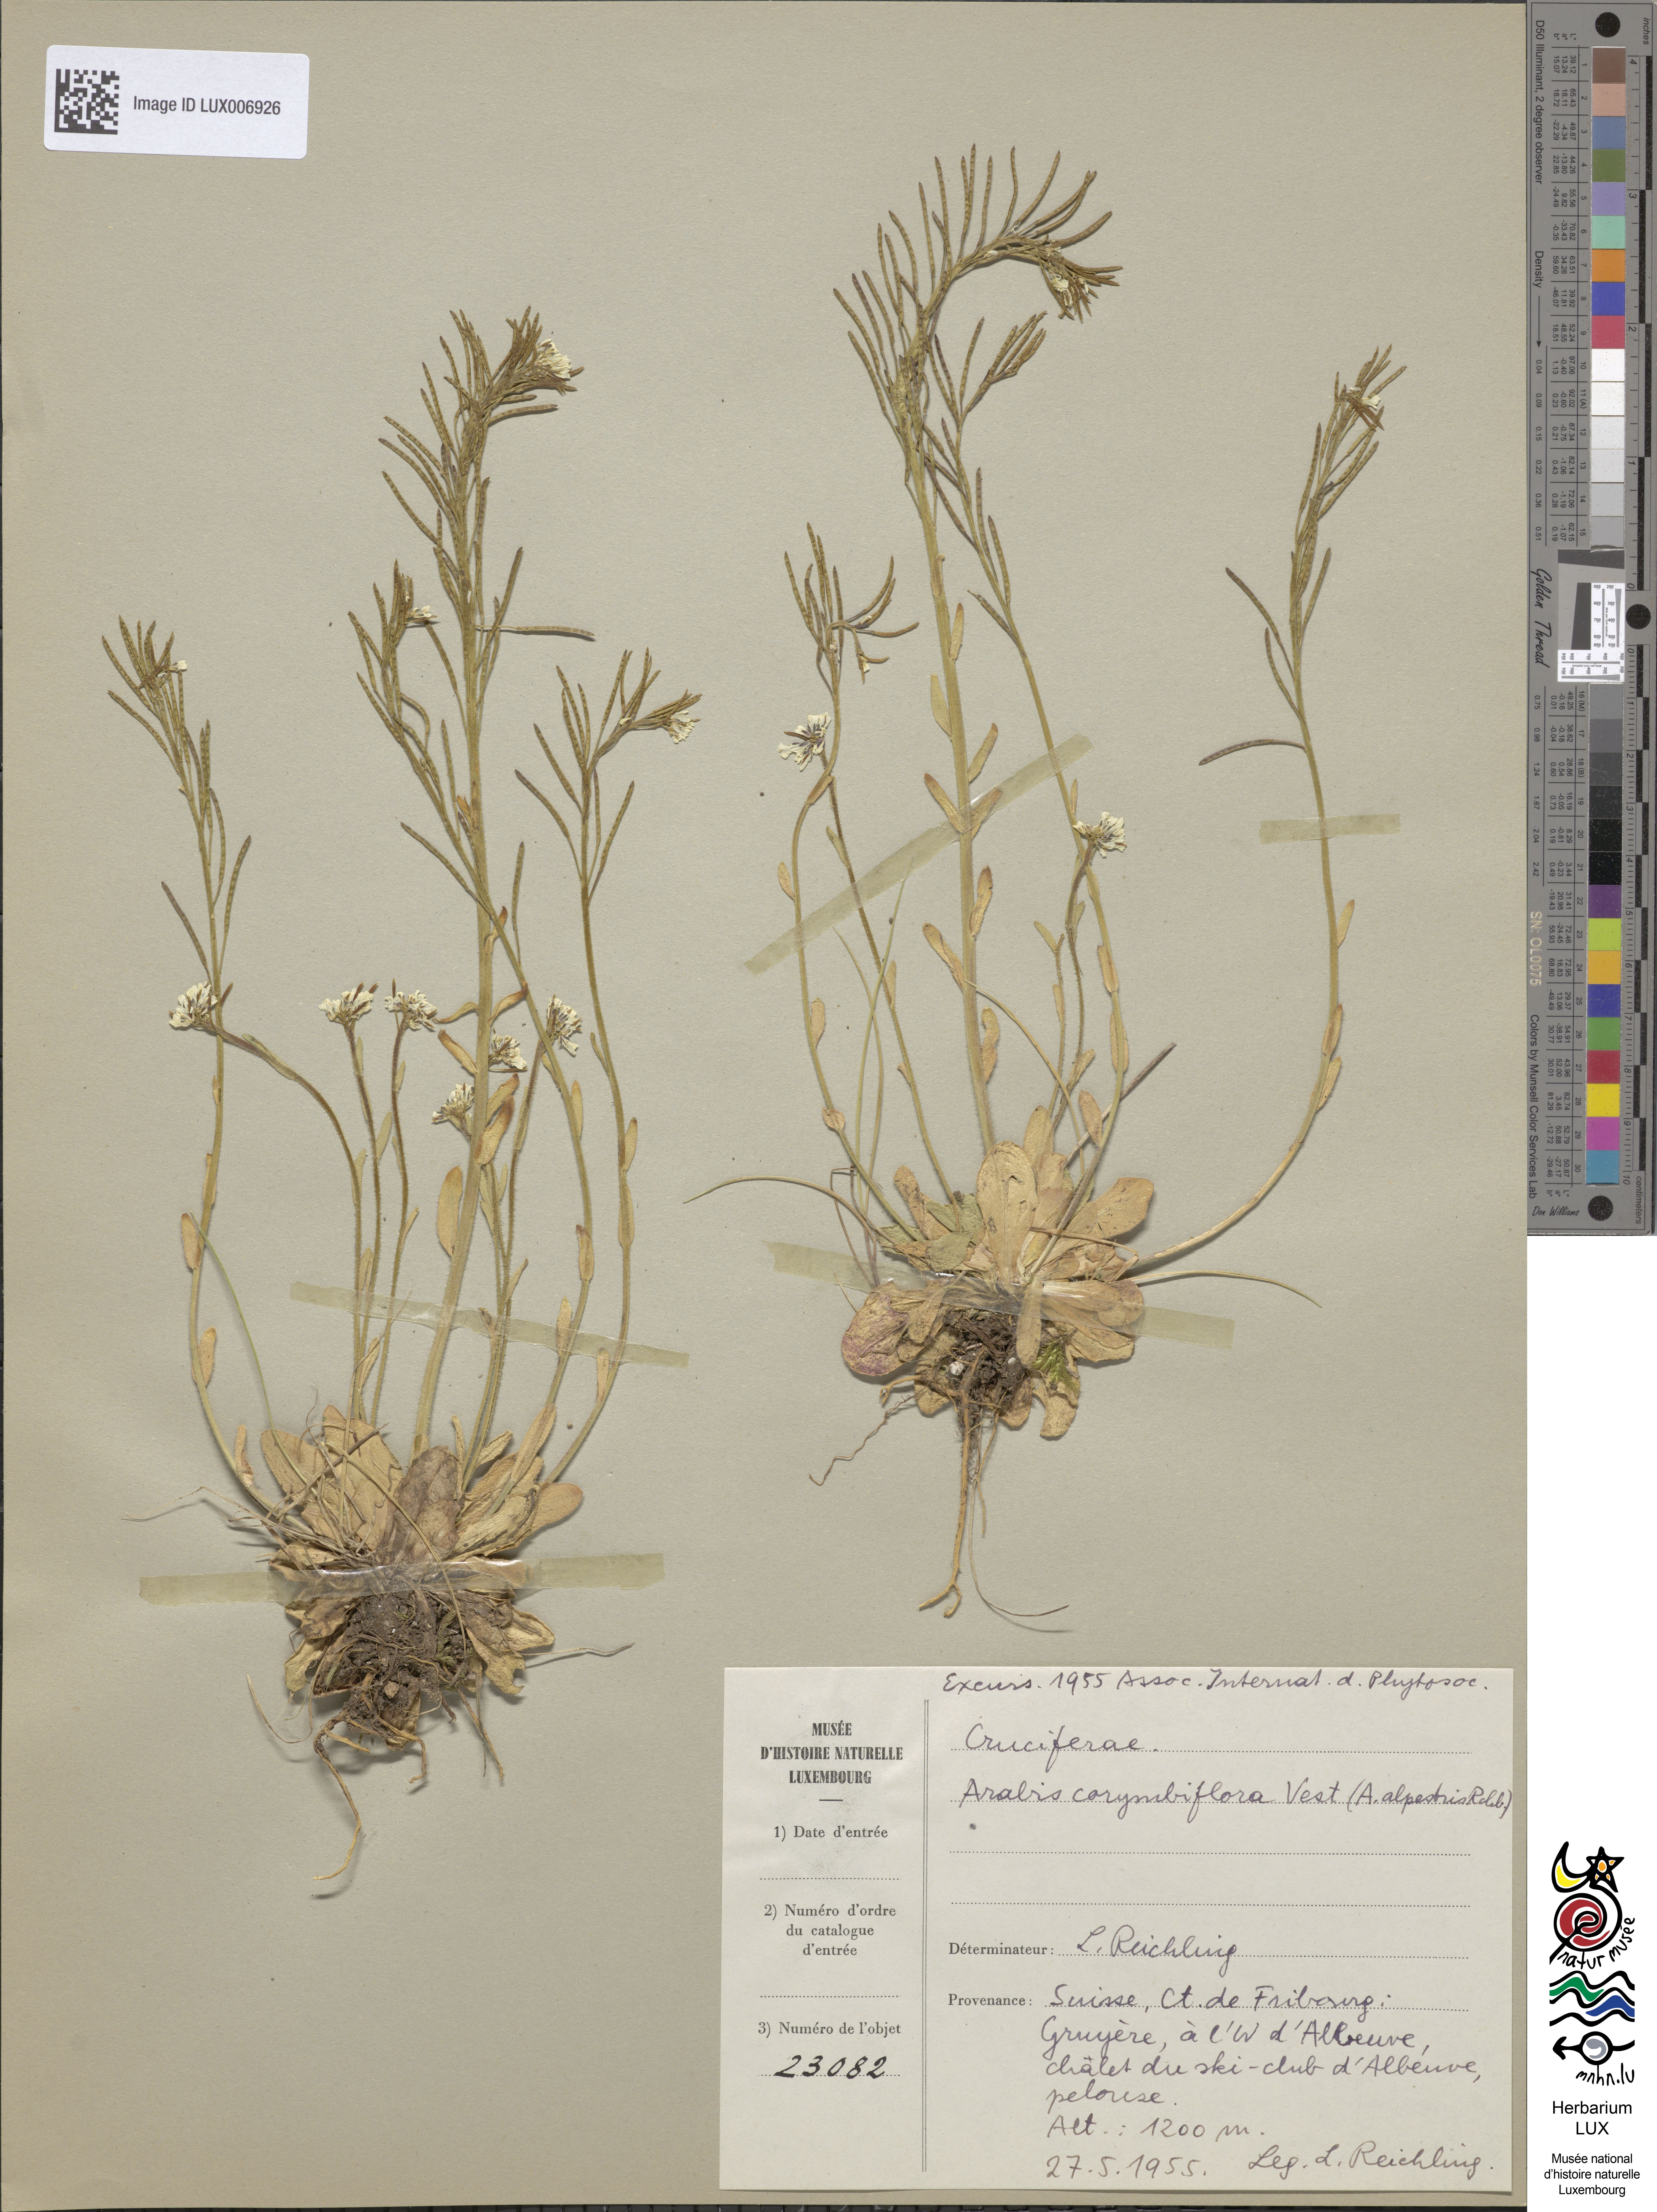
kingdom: Plantae
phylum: Tracheophyta
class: Magnoliopsida
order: Brassicales
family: Brassicaceae
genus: Arabis
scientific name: Arabis ciliata
